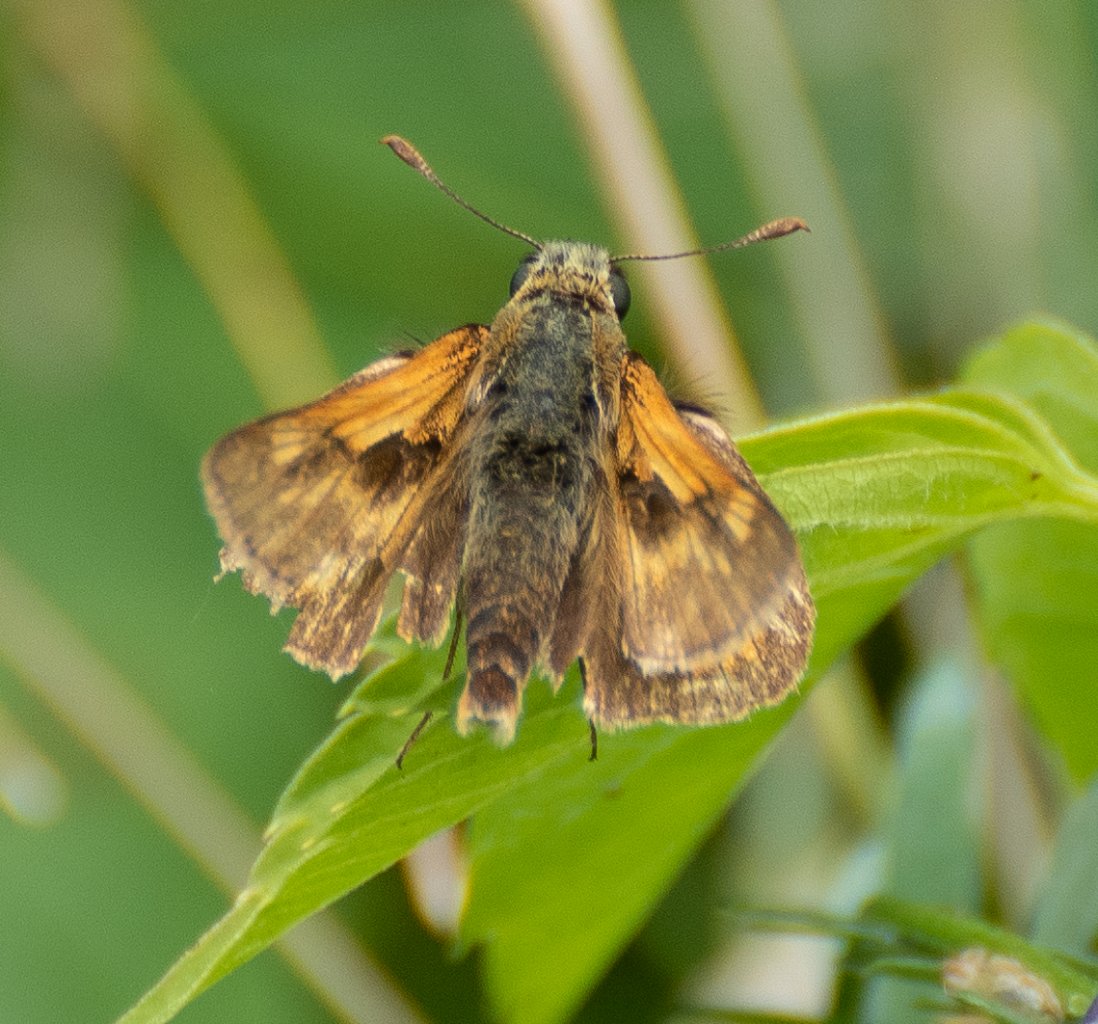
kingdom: Animalia
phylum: Arthropoda
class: Insecta
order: Lepidoptera
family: Hesperiidae
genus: Polites
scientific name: Polites
